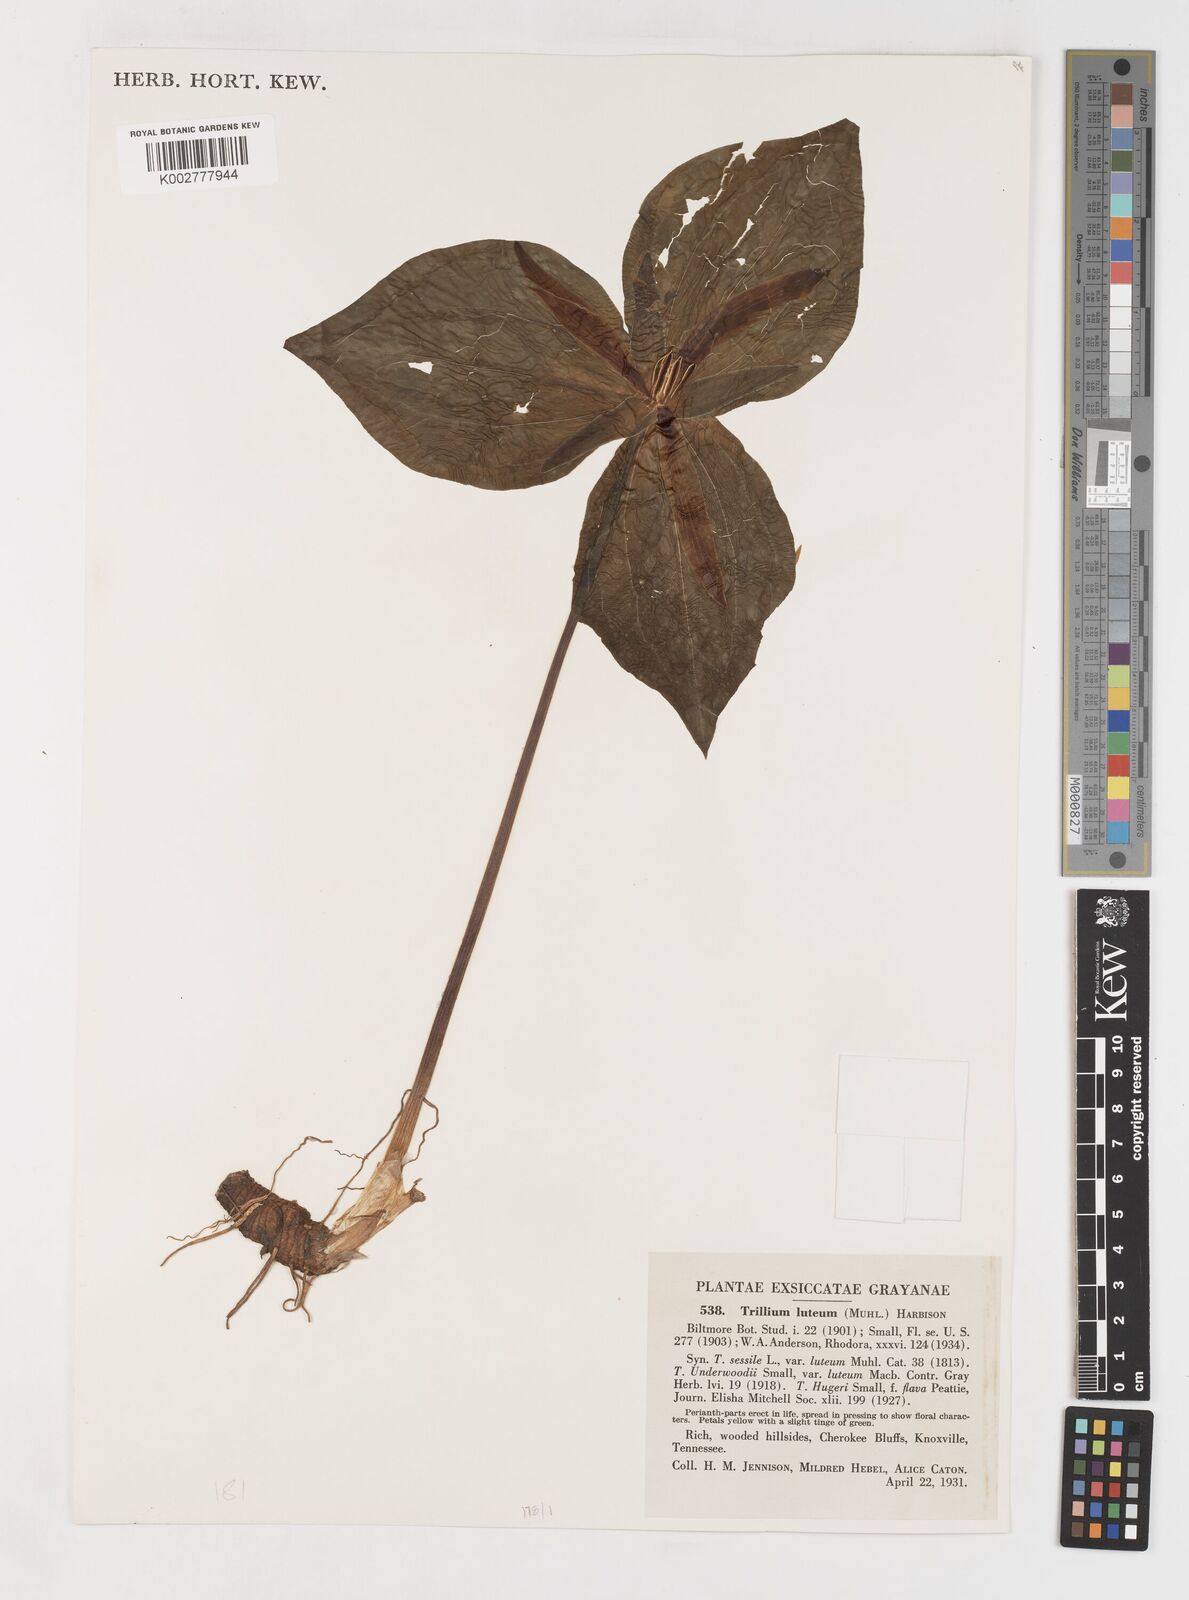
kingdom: Plantae
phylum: Tracheophyta
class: Liliopsida
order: Liliales
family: Melanthiaceae
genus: Trillium
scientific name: Trillium luteum
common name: Wax trillium
